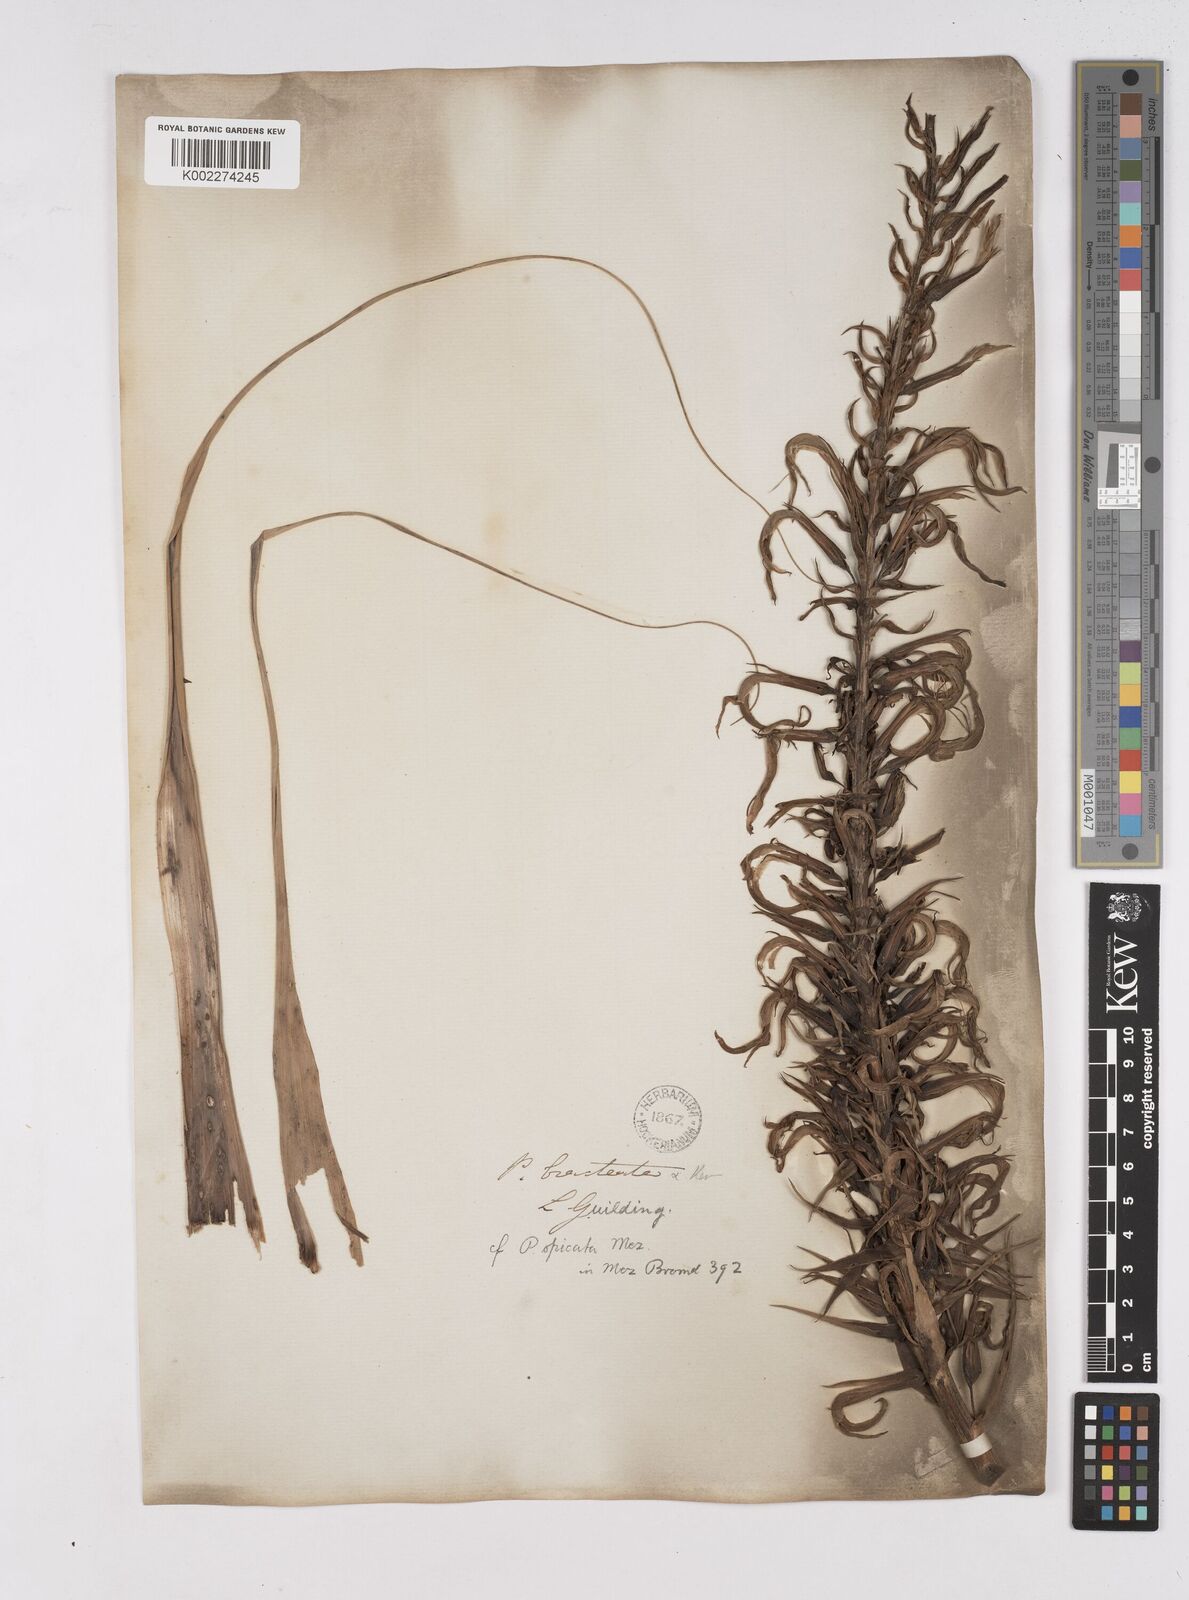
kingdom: Plantae
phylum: Tracheophyta
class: Liliopsida
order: Poales
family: Bromeliaceae
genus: Pitcairnia
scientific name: Pitcairnia spicata
